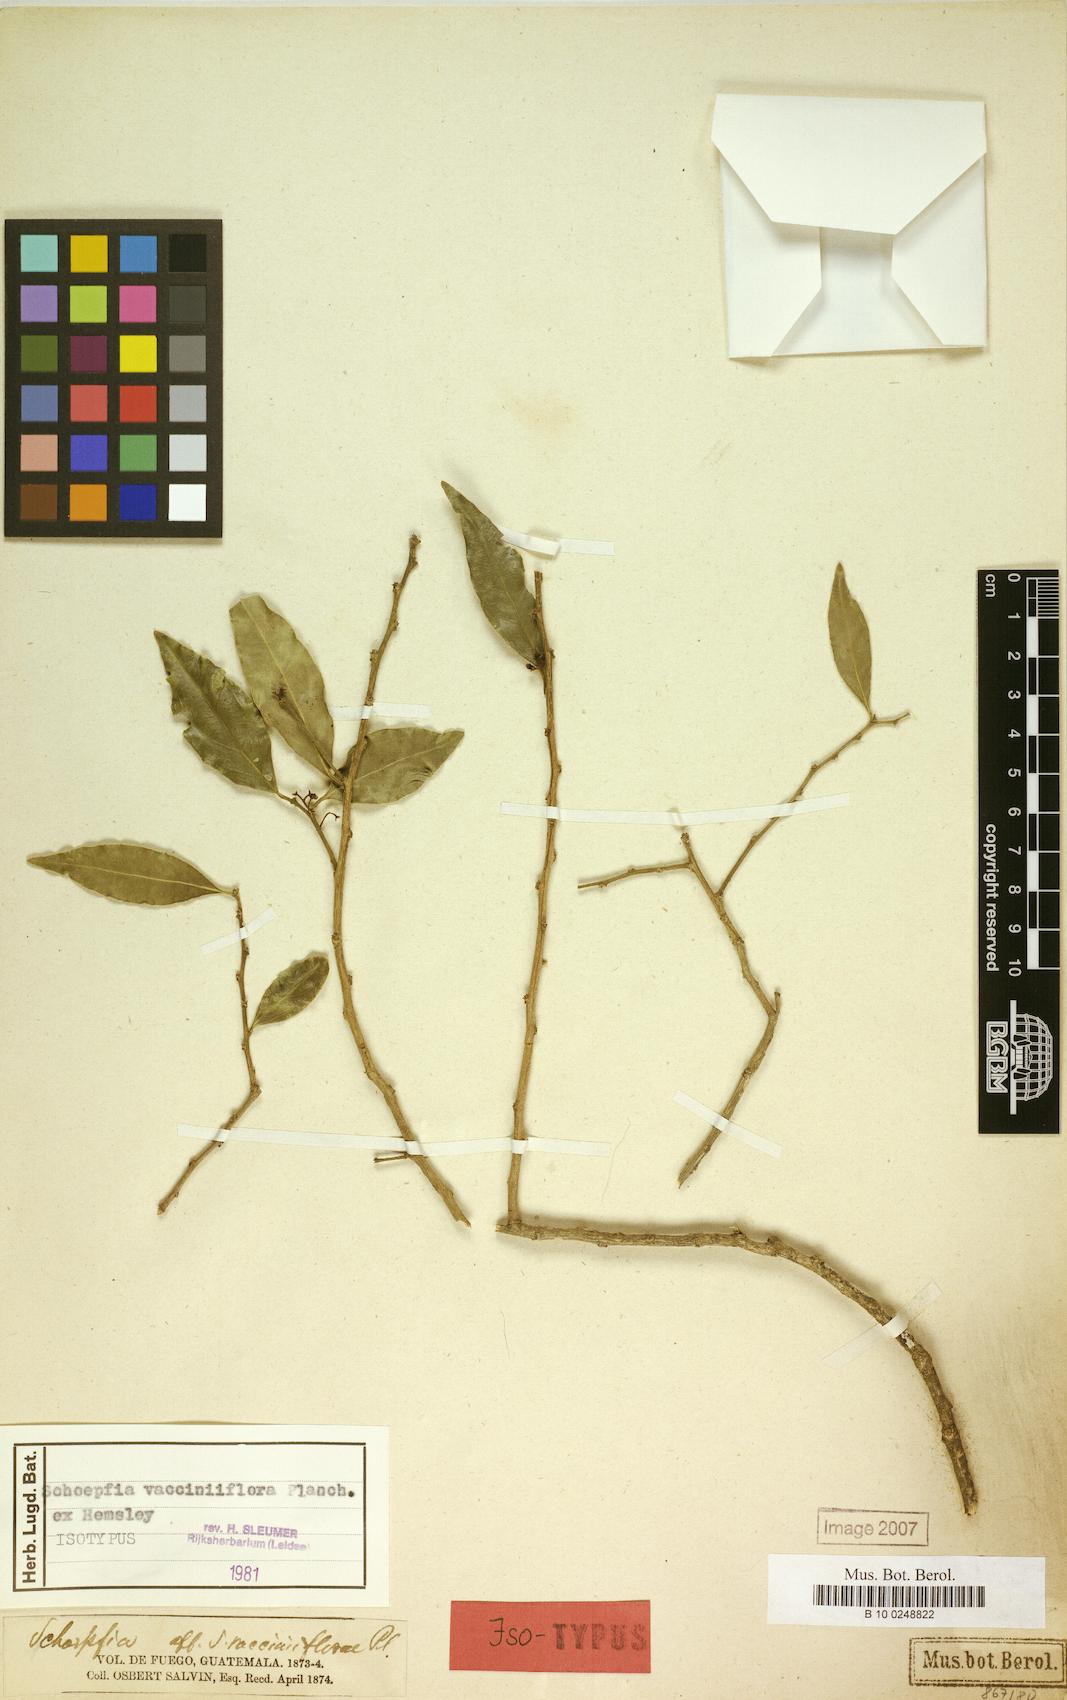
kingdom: Plantae
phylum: Tracheophyta
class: Magnoliopsida
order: Santalales
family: Schoepfiaceae
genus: Schoepfia
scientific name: Schoepfia vacciniiflora
